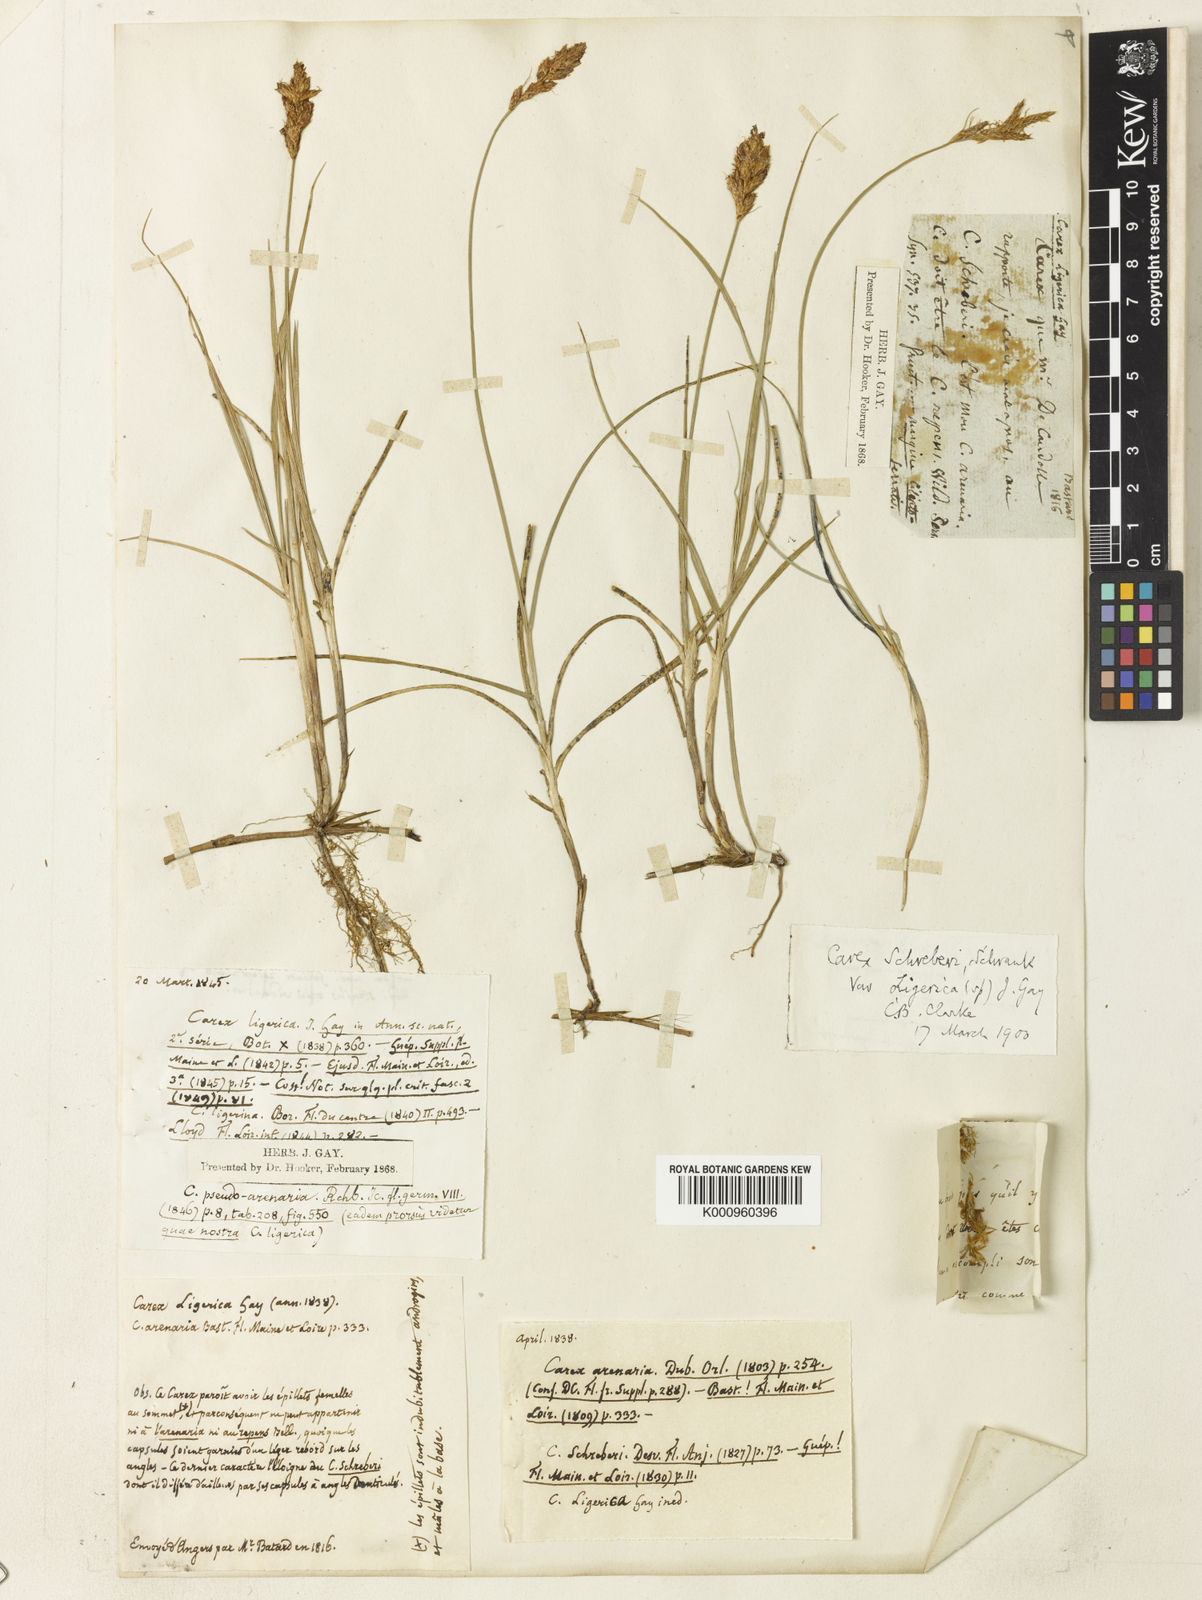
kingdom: Plantae
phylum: Tracheophyta
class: Liliopsida
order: Poales
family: Cyperaceae
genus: Carex
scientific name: Carex colchica
